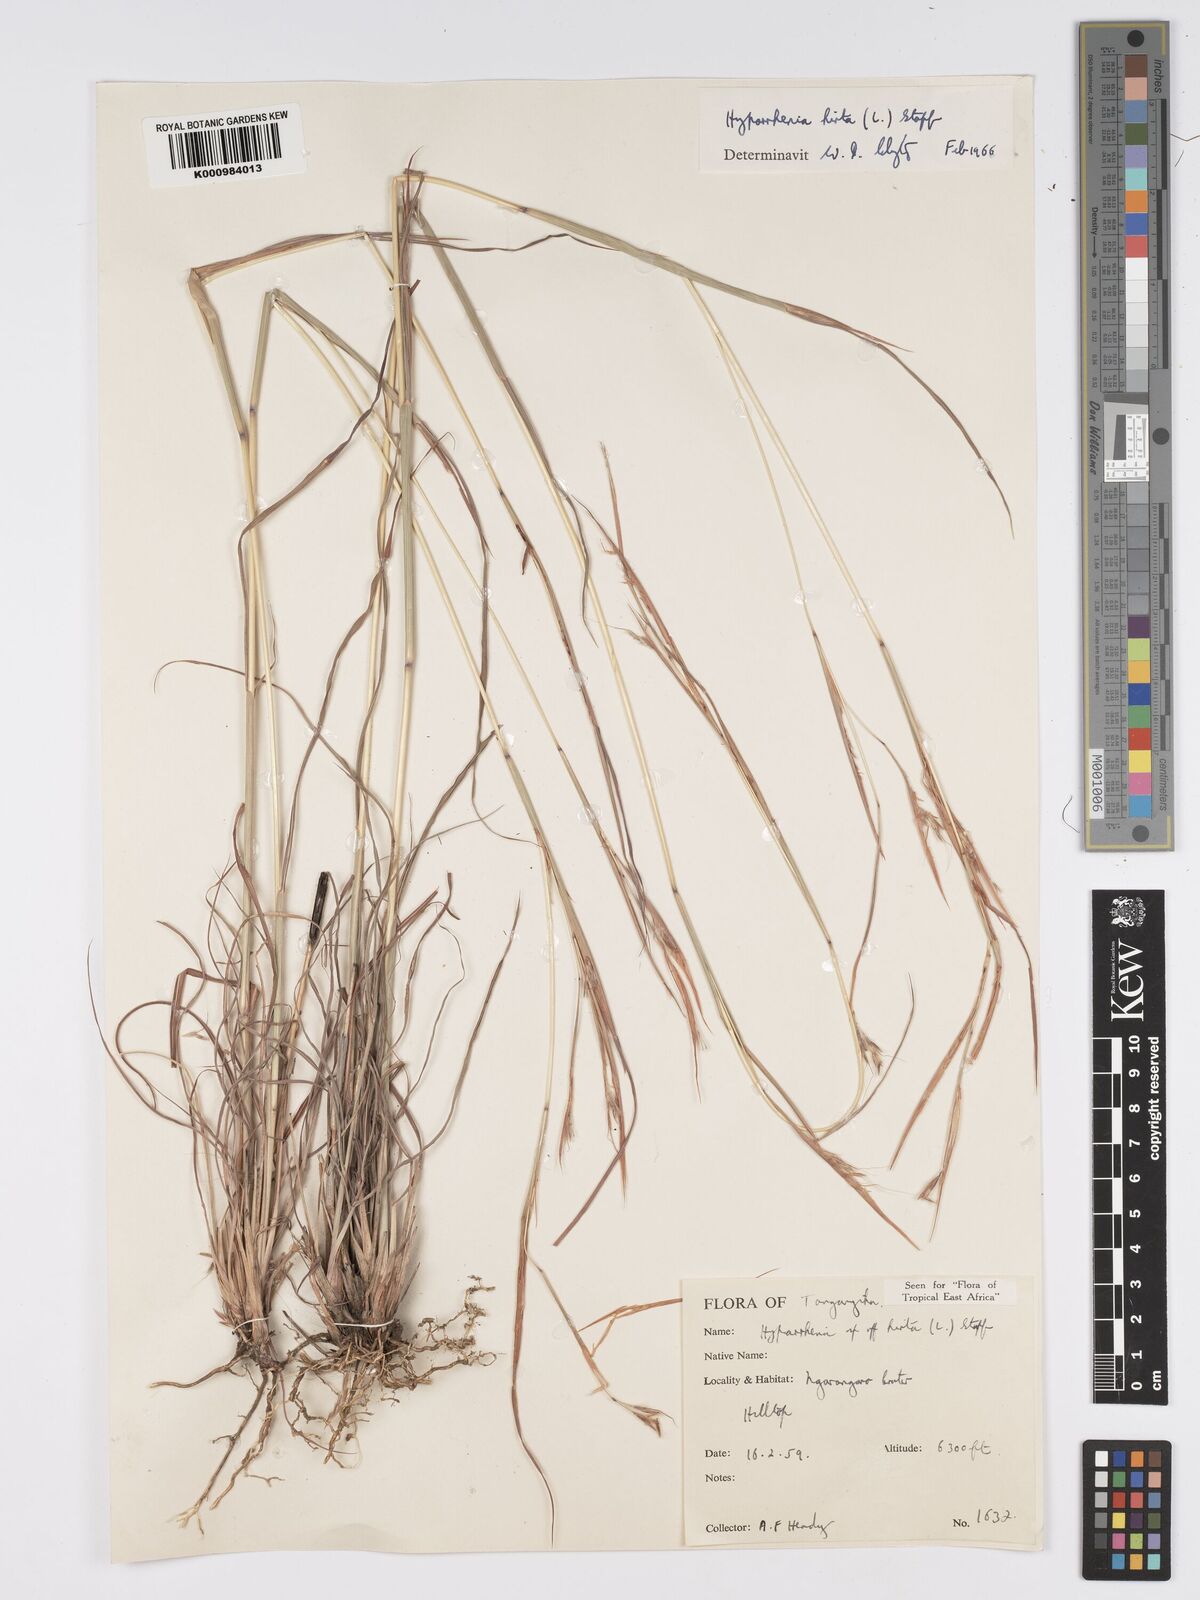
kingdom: Plantae
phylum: Tracheophyta
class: Liliopsida
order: Poales
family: Poaceae
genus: Hyparrhenia
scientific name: Hyparrhenia hirta
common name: Thatching grass
